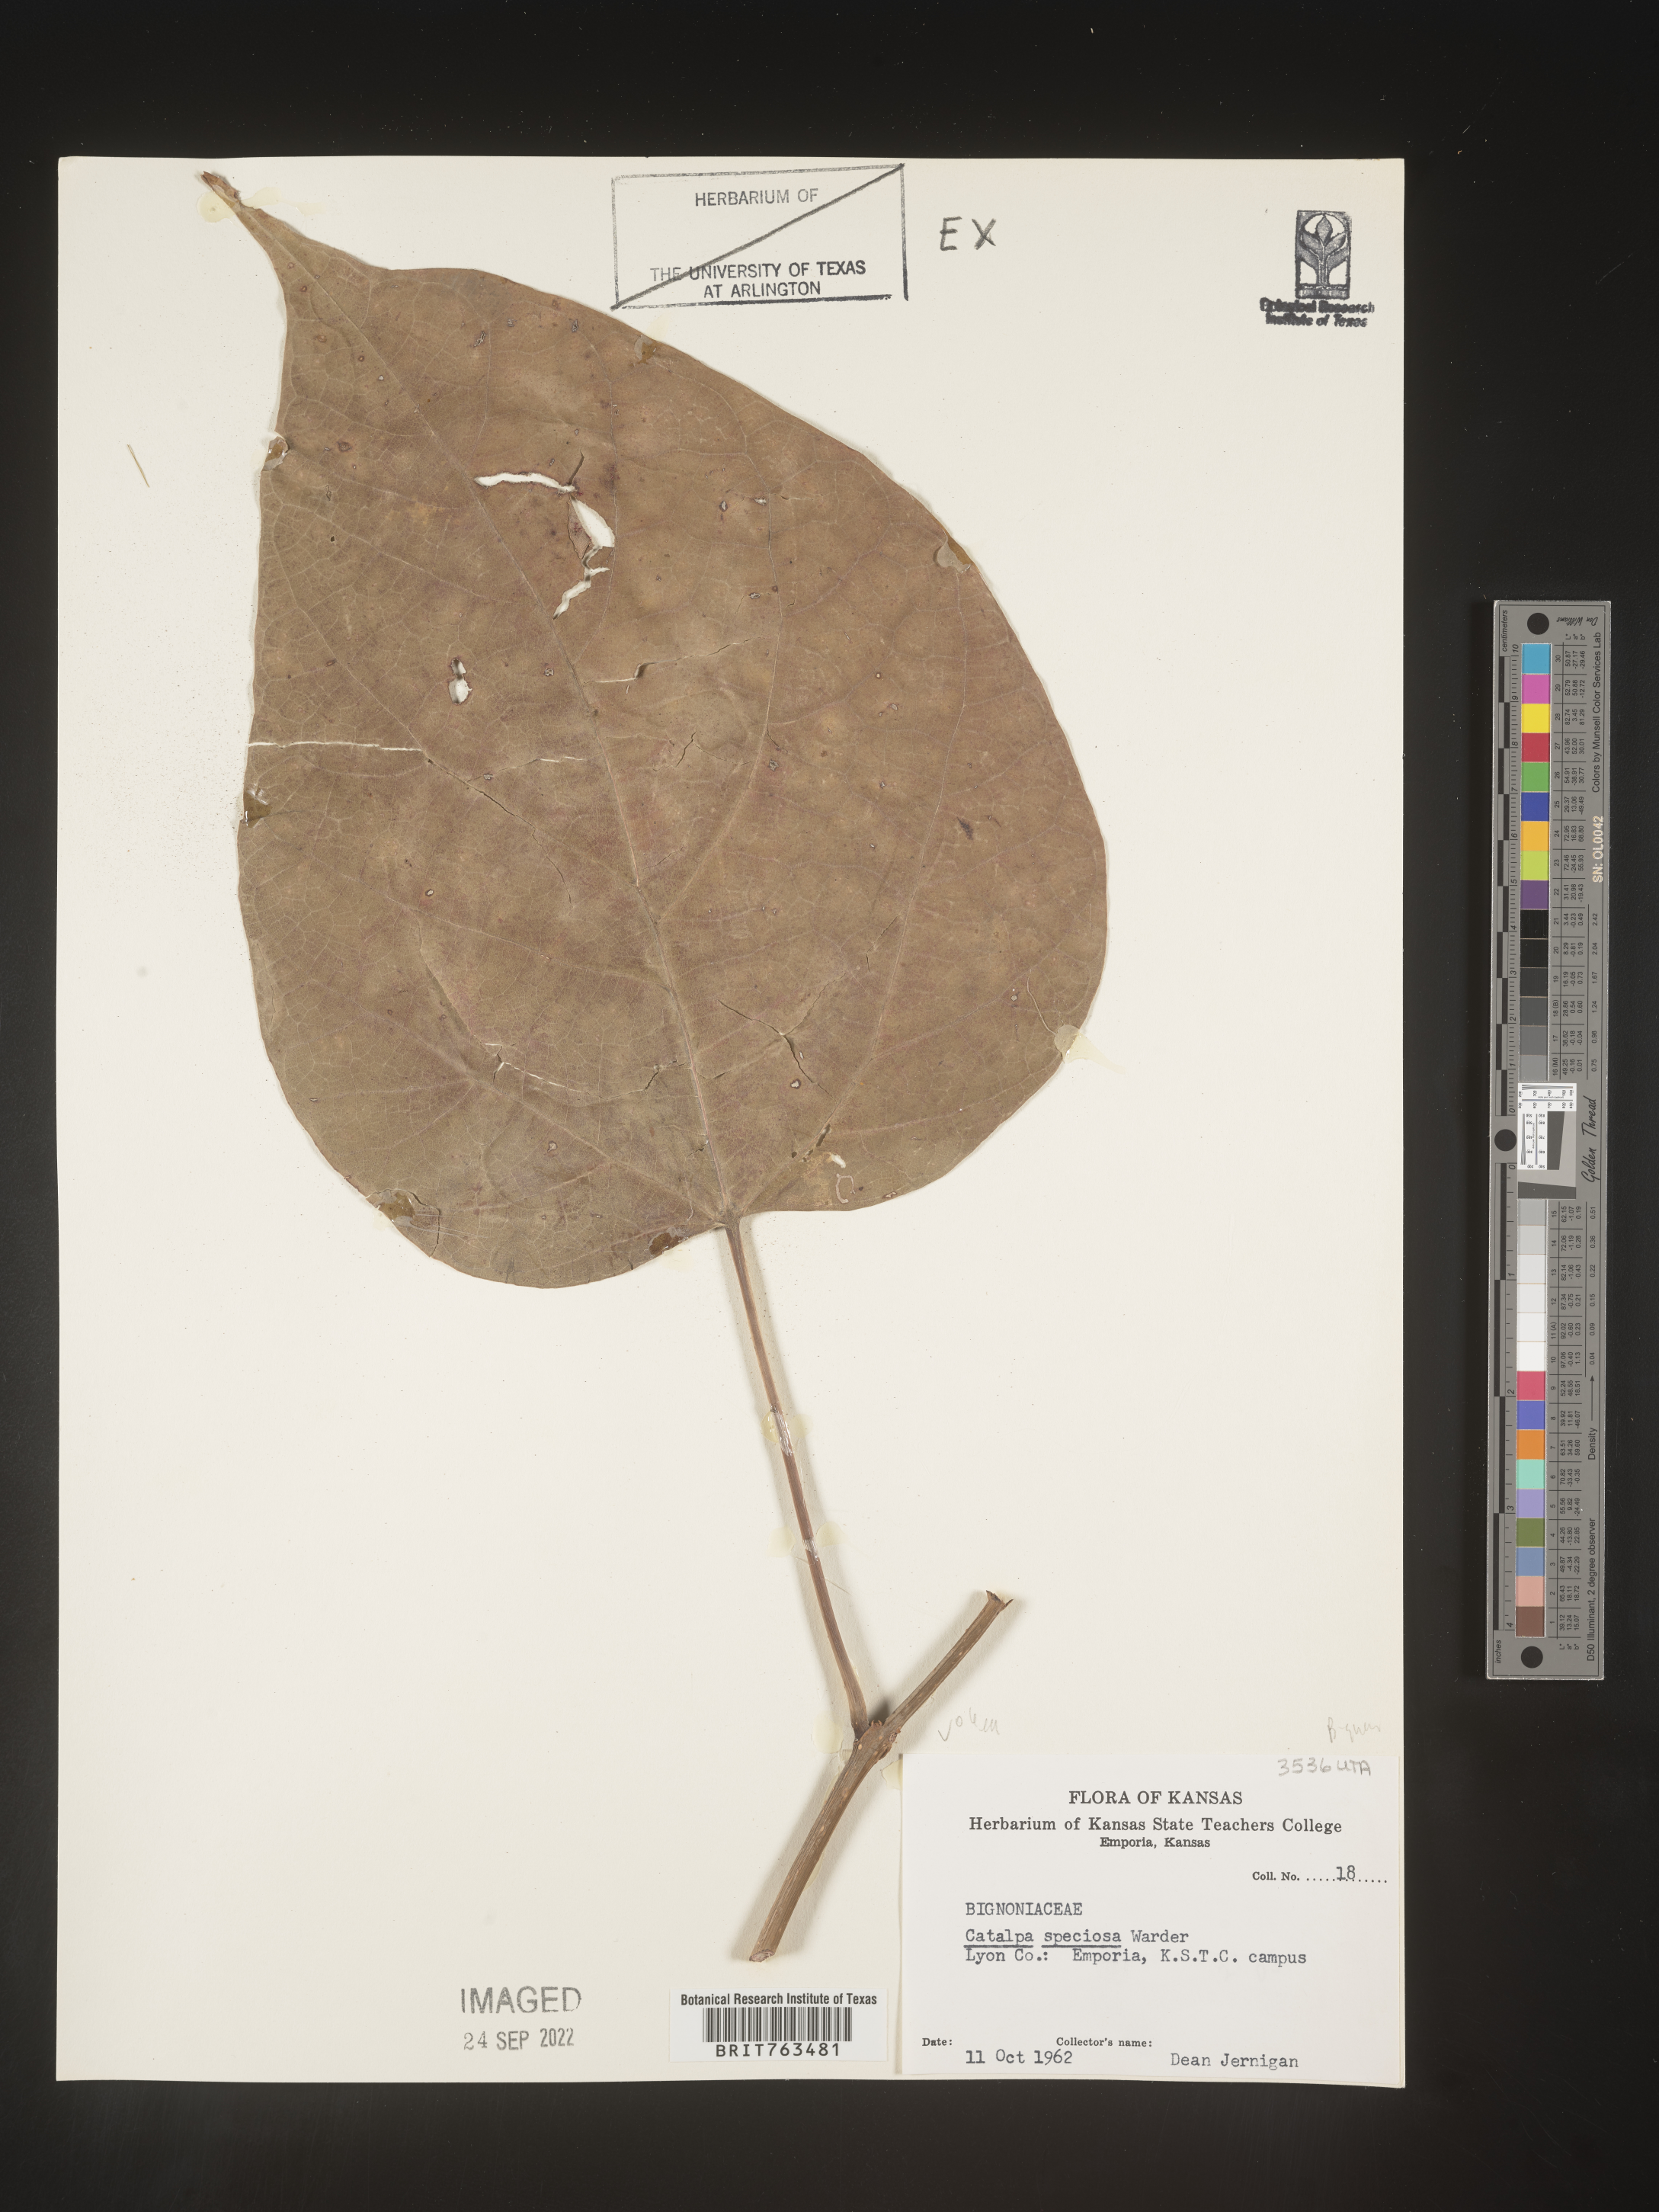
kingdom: Plantae
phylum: Tracheophyta
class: Magnoliopsida
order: Lamiales
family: Bignoniaceae
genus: Catalpa
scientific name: Catalpa speciosa
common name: Northern catalpa
